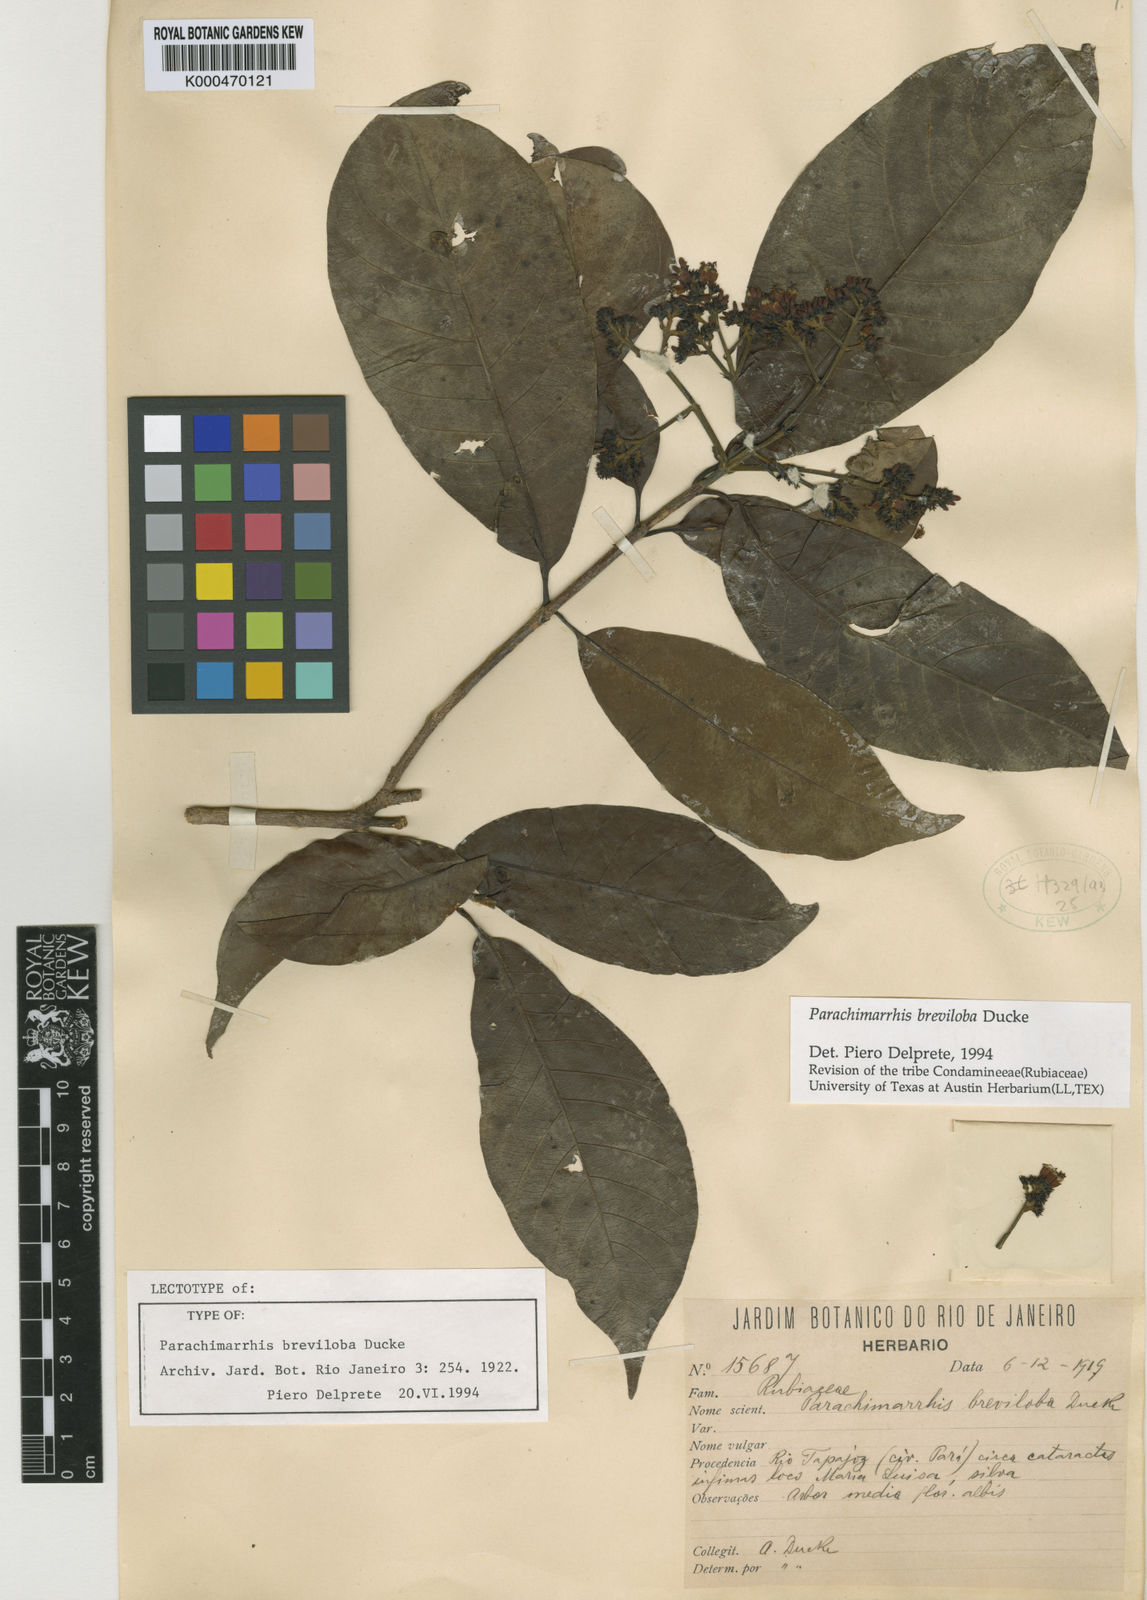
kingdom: Plantae
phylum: Tracheophyta
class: Magnoliopsida
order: Gentianales
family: Rubiaceae
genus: Parachimarrhis
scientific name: Parachimarrhis breviloba
